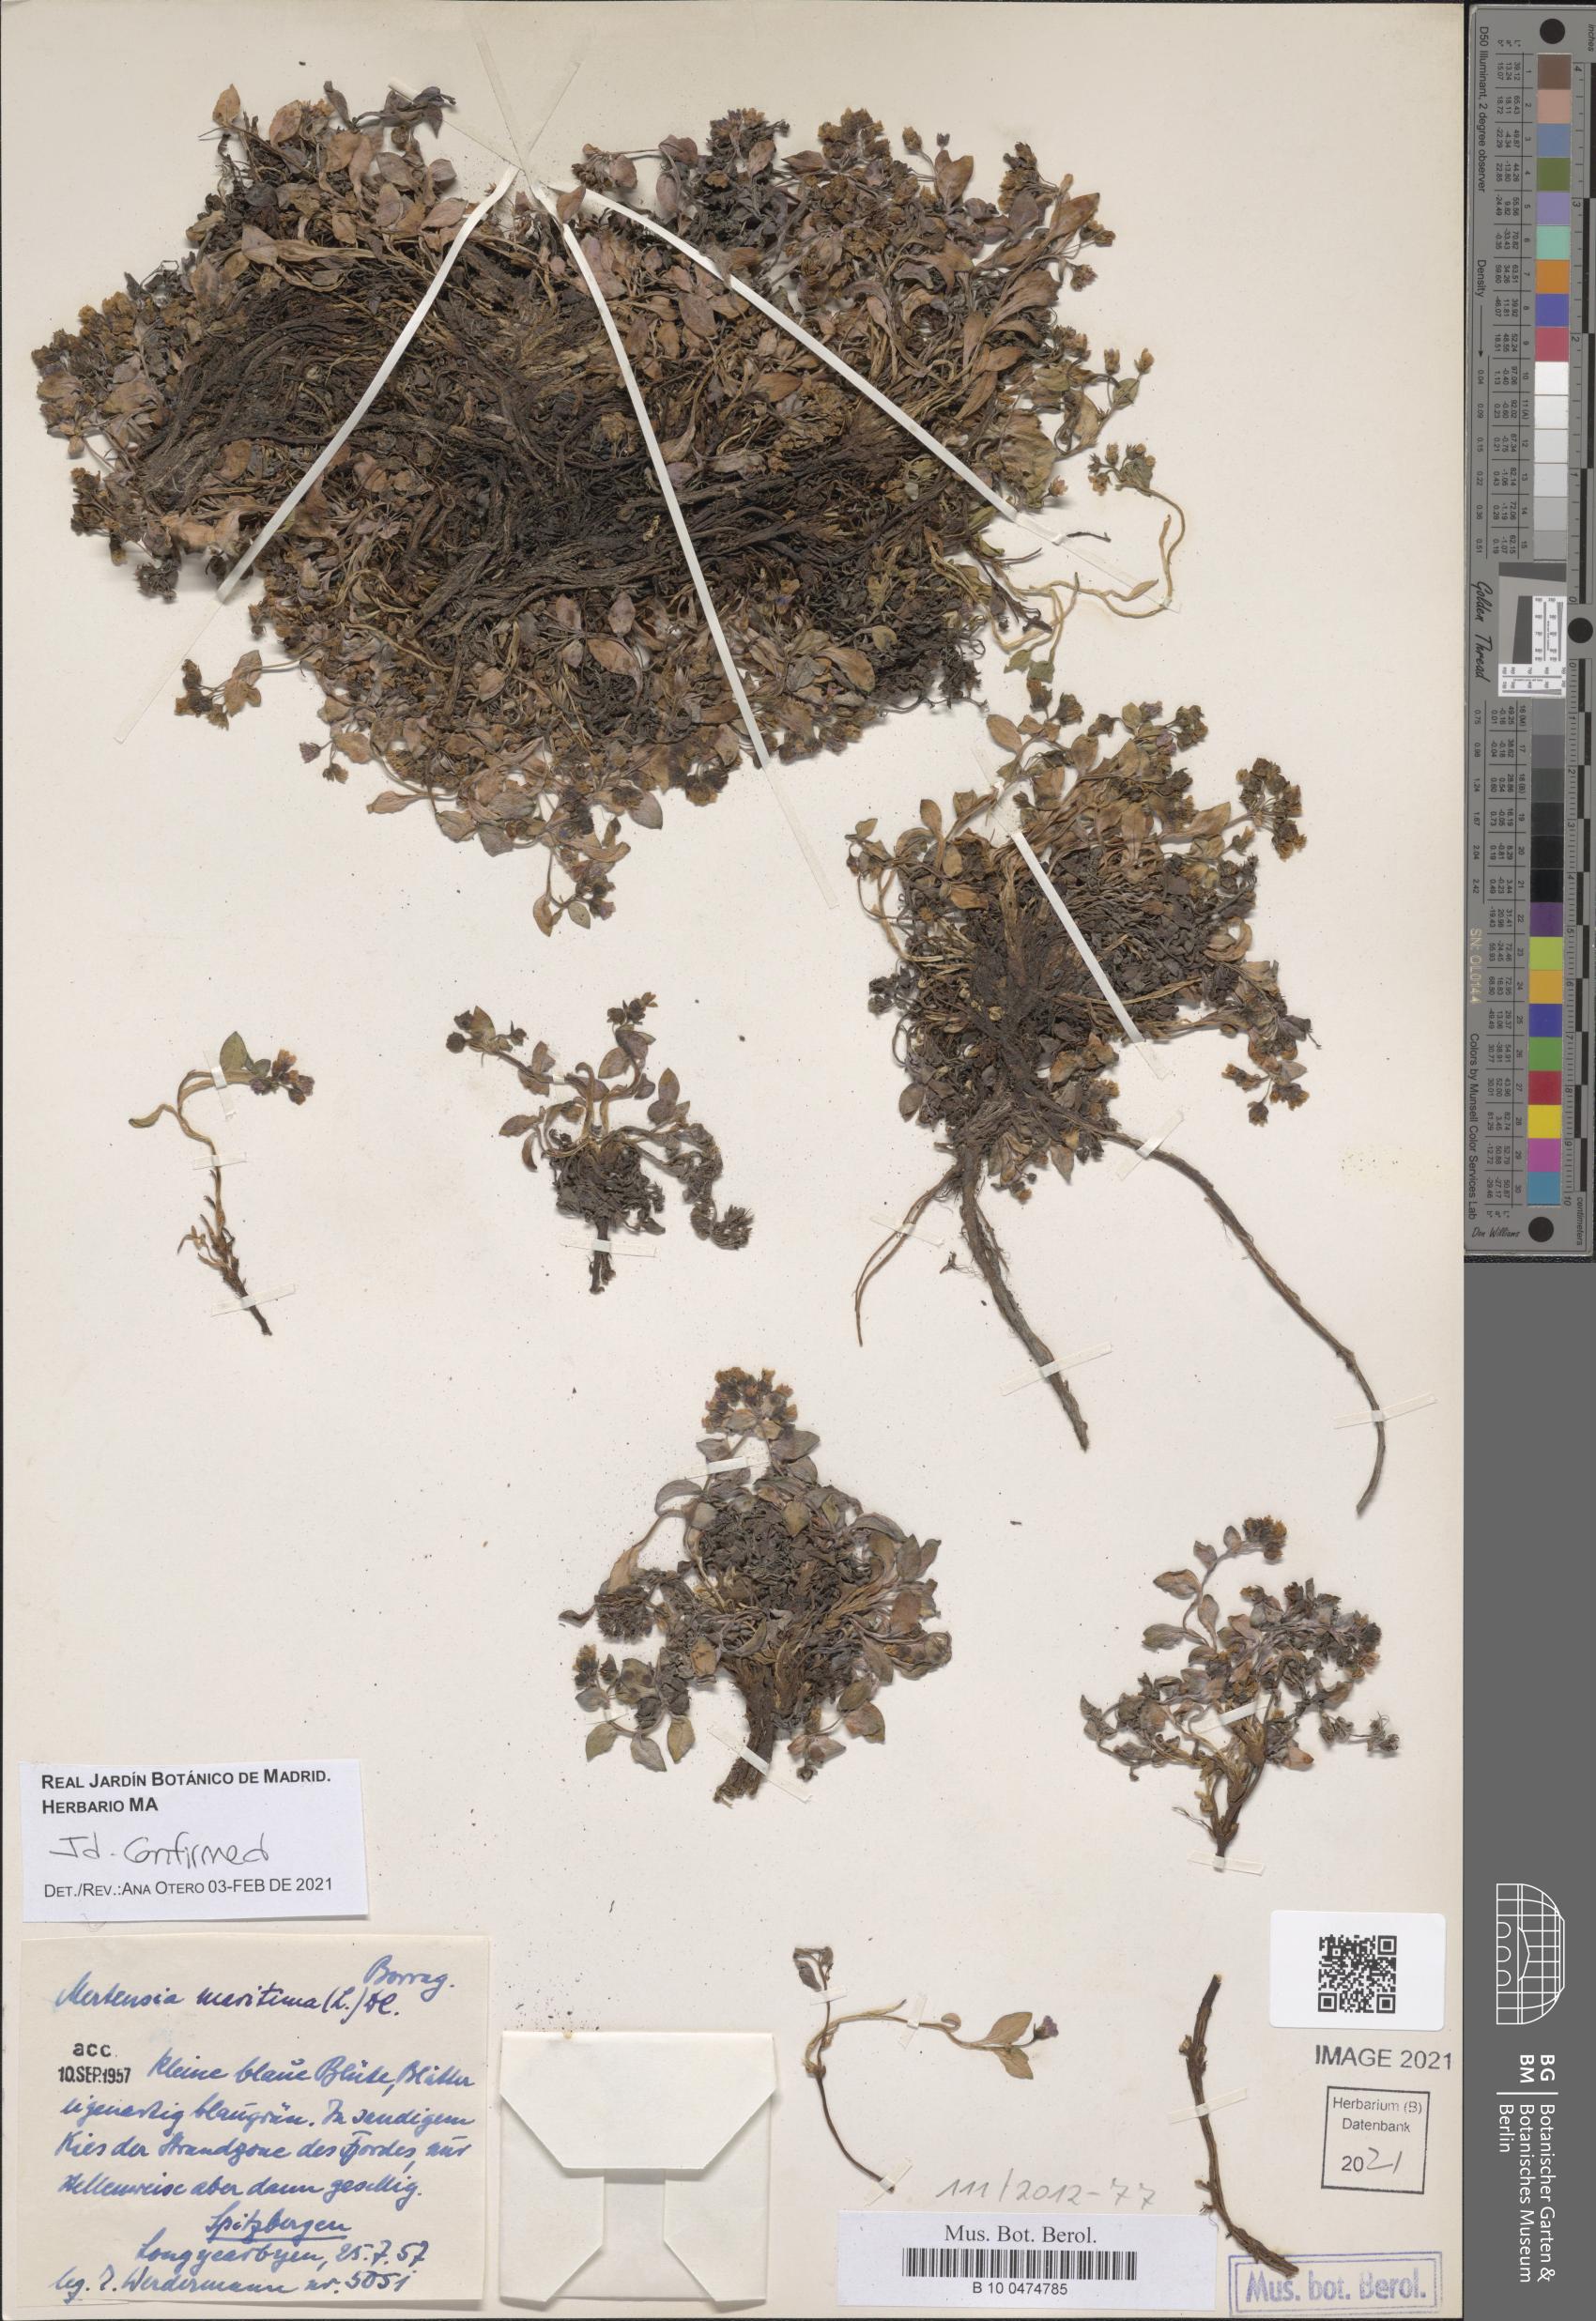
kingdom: Plantae
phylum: Tracheophyta
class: Magnoliopsida
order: Boraginales
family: Boraginaceae
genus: Mertensia
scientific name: Mertensia maritima
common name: Oysterplant
